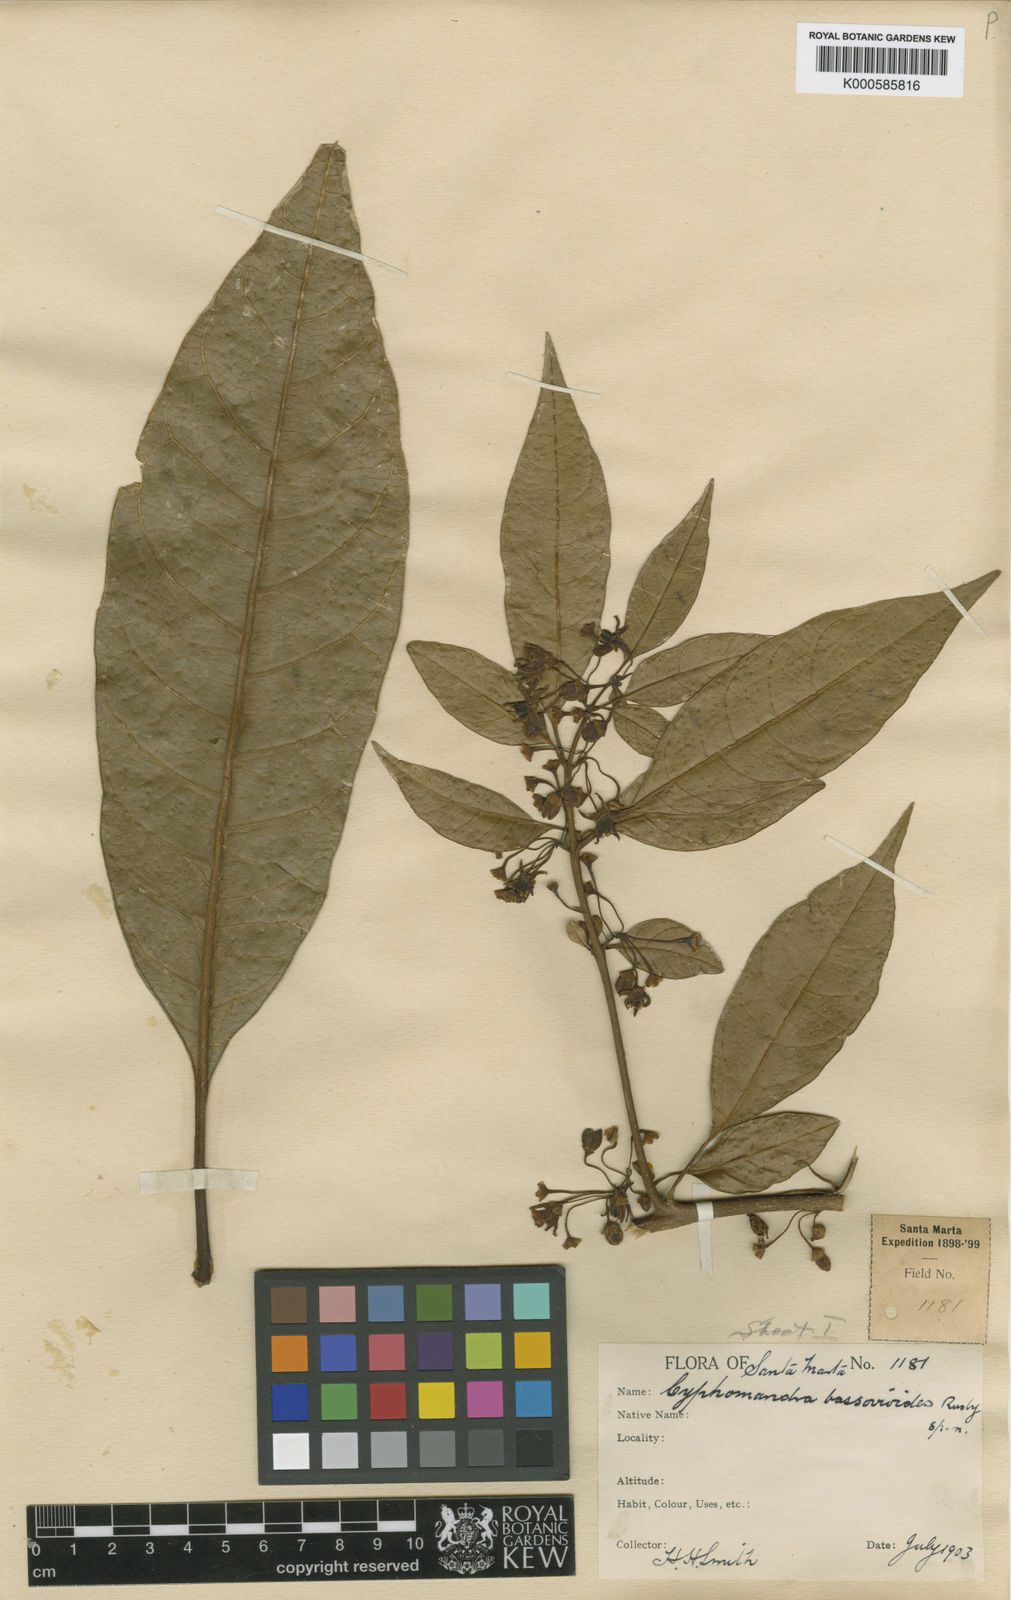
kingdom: Plantae
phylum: Tracheophyta
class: Magnoliopsida
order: Solanales
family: Solanaceae
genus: Solanum
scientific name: Solanum lasiopodium
